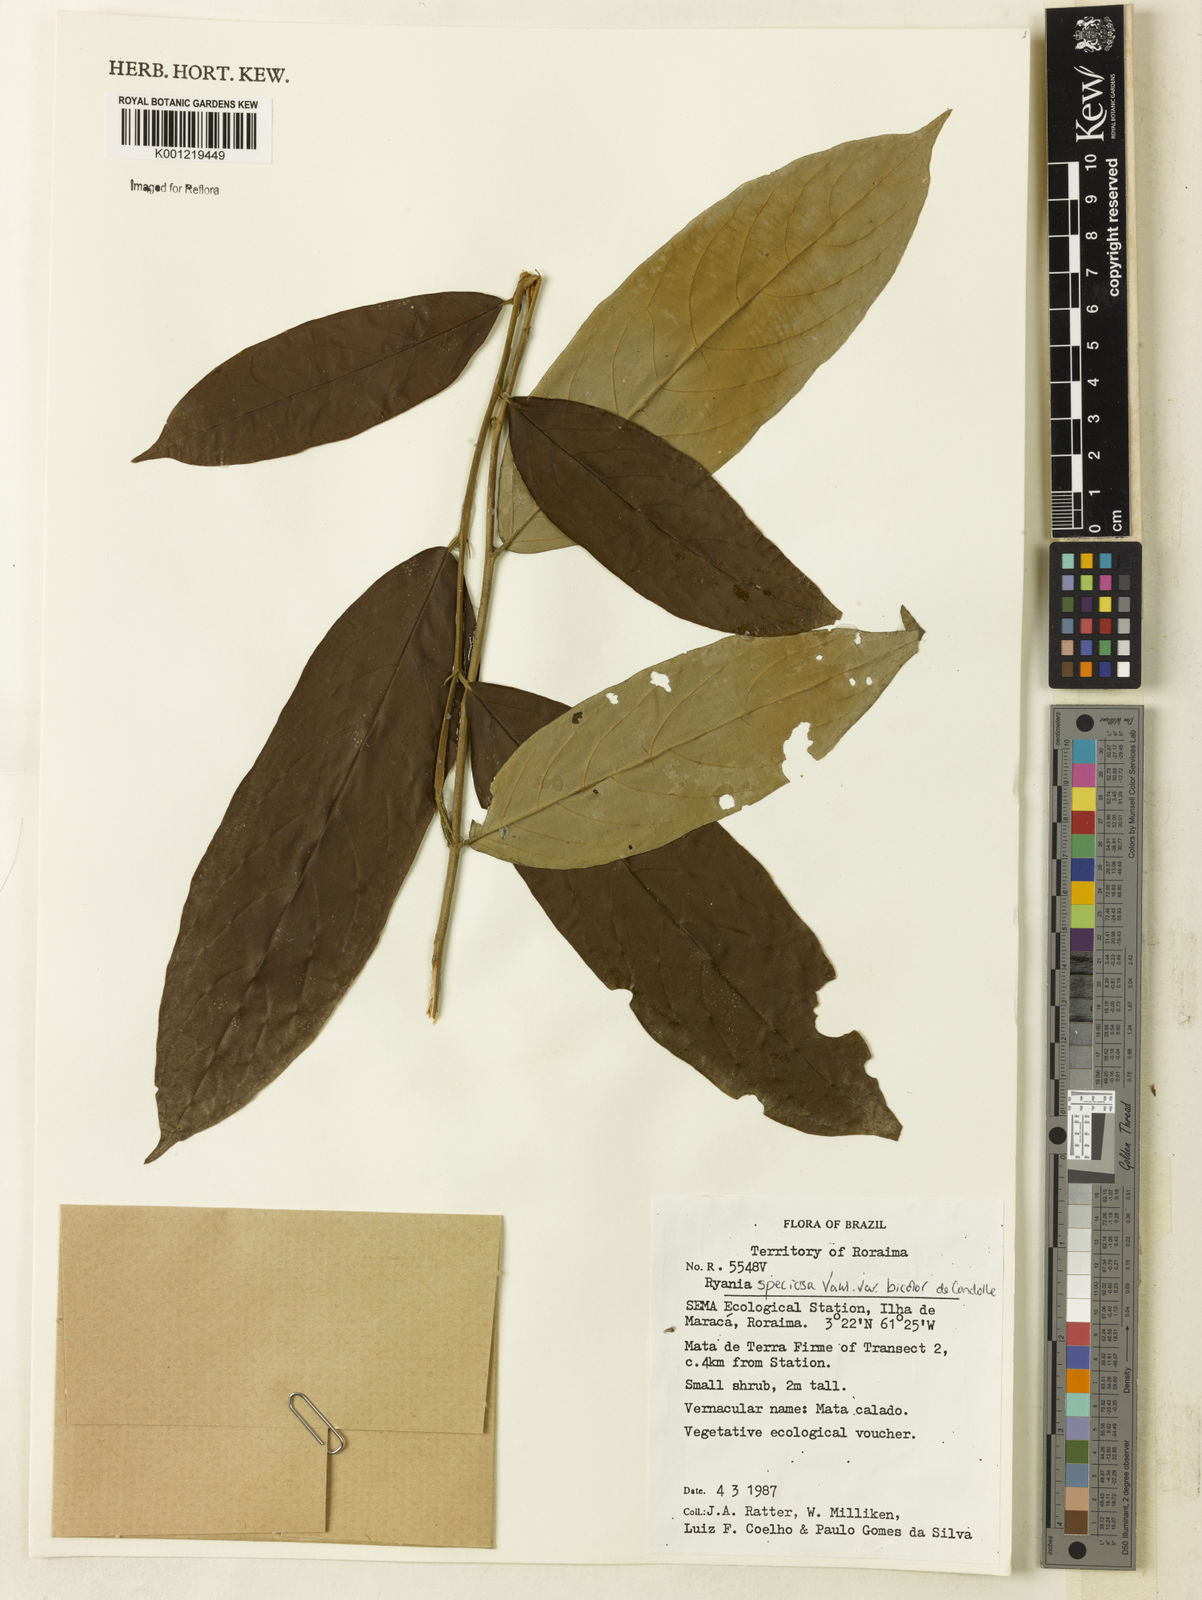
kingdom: Plantae
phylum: Tracheophyta
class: Magnoliopsida
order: Malpighiales
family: Salicaceae
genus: Ryania
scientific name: Ryania speciosa
